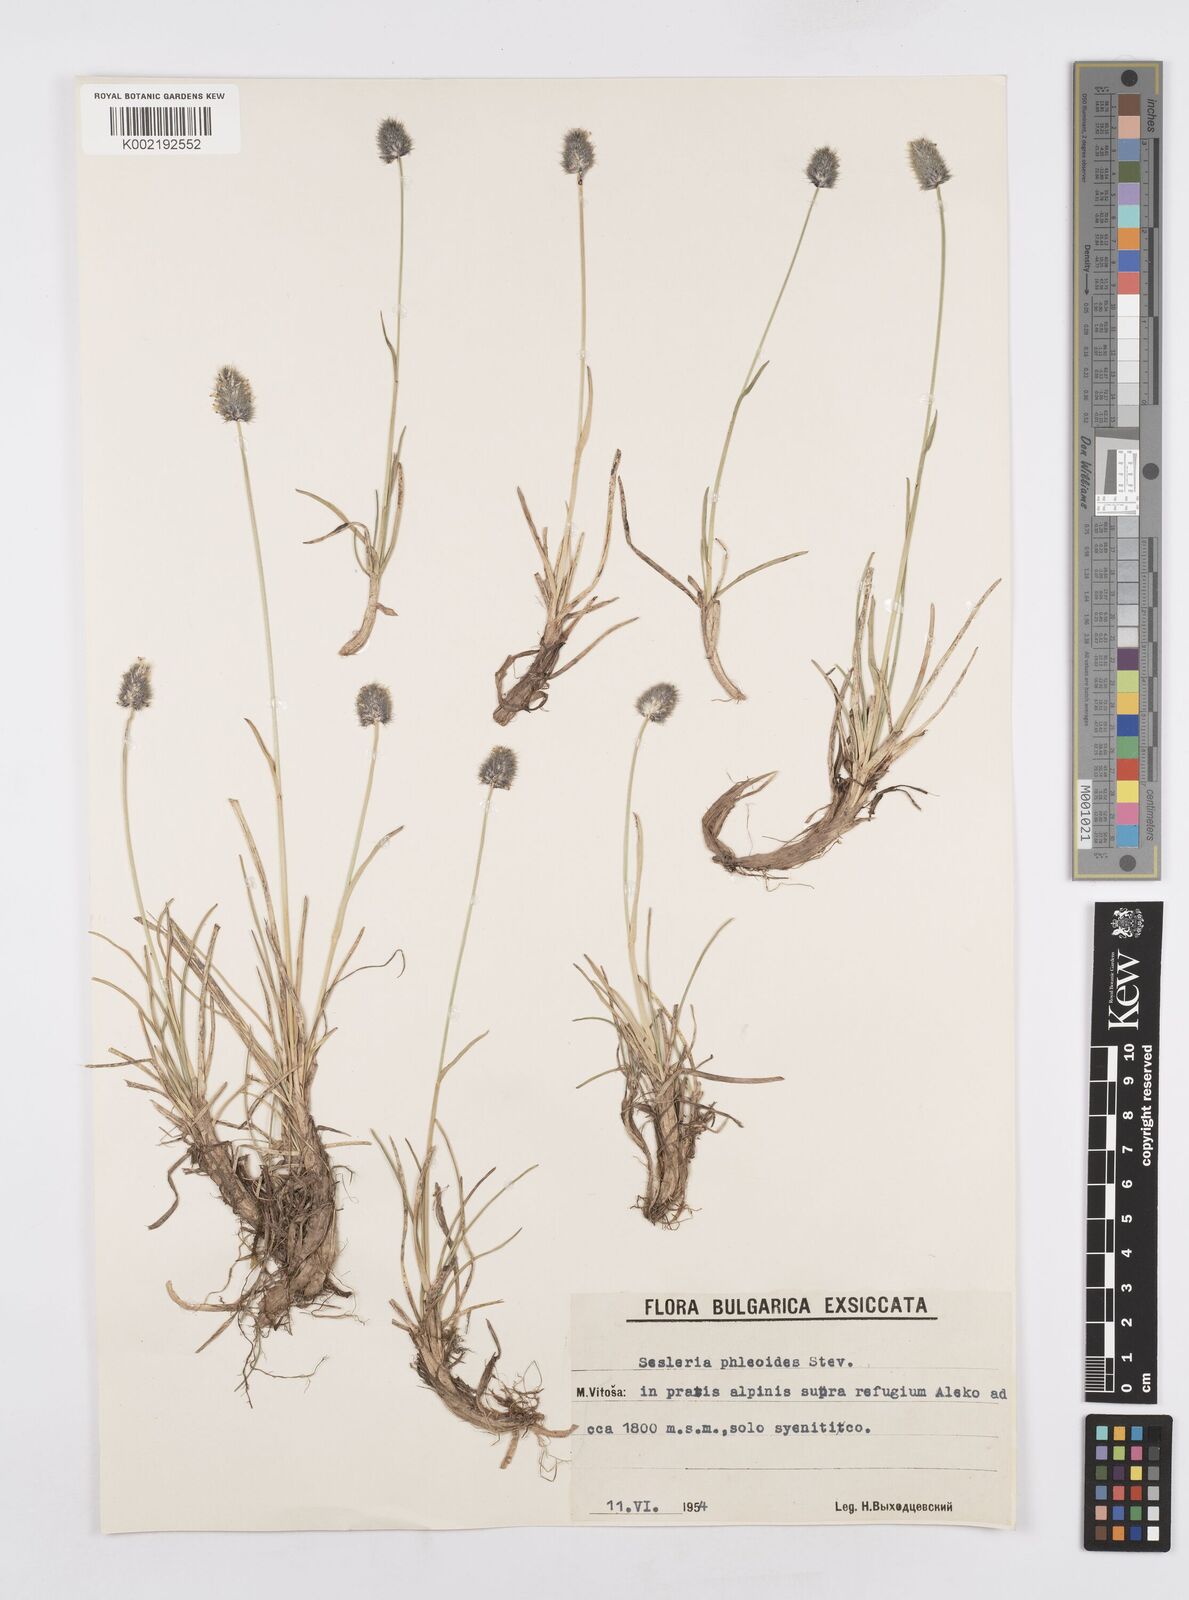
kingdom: Plantae
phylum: Tracheophyta
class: Liliopsida
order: Poales
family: Poaceae
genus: Sesleria
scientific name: Sesleria comosa
